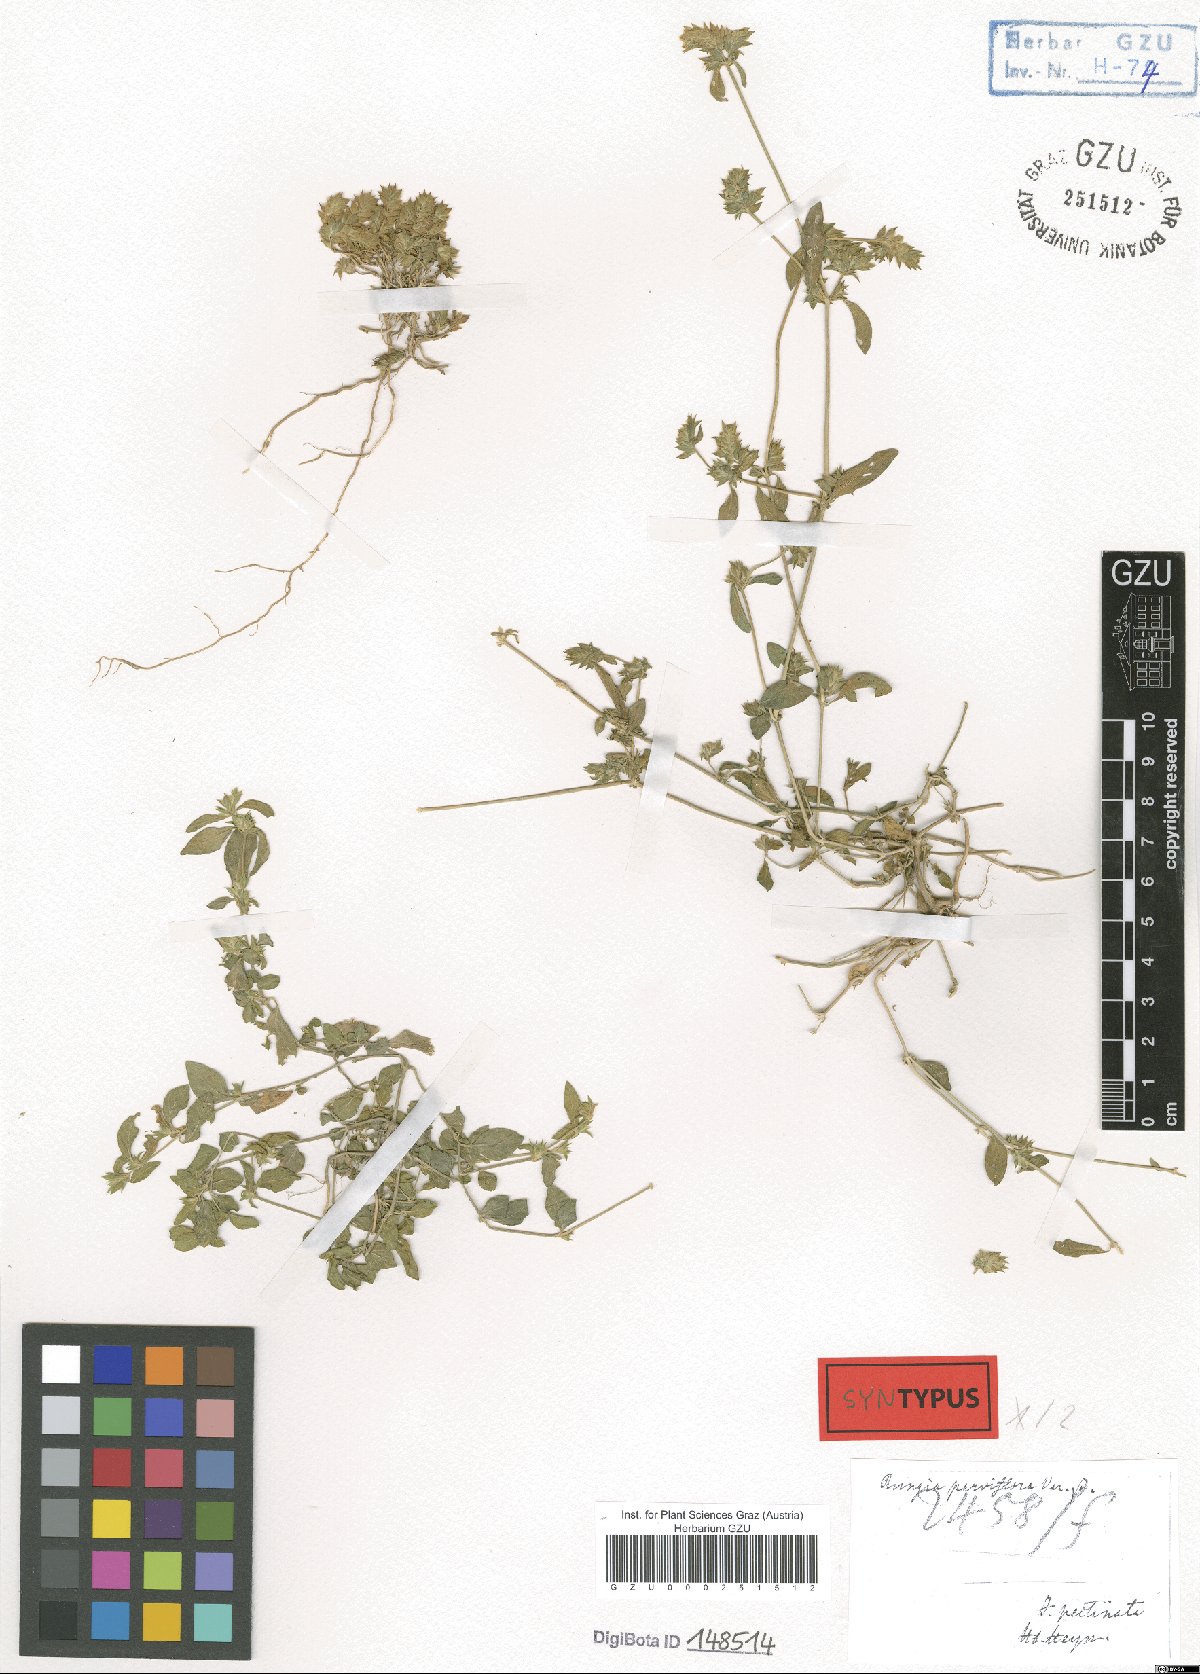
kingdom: Plantae
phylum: Tracheophyta
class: Magnoliopsida
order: Lamiales
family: Acanthaceae
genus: Rungia
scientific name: Rungia parviflora
